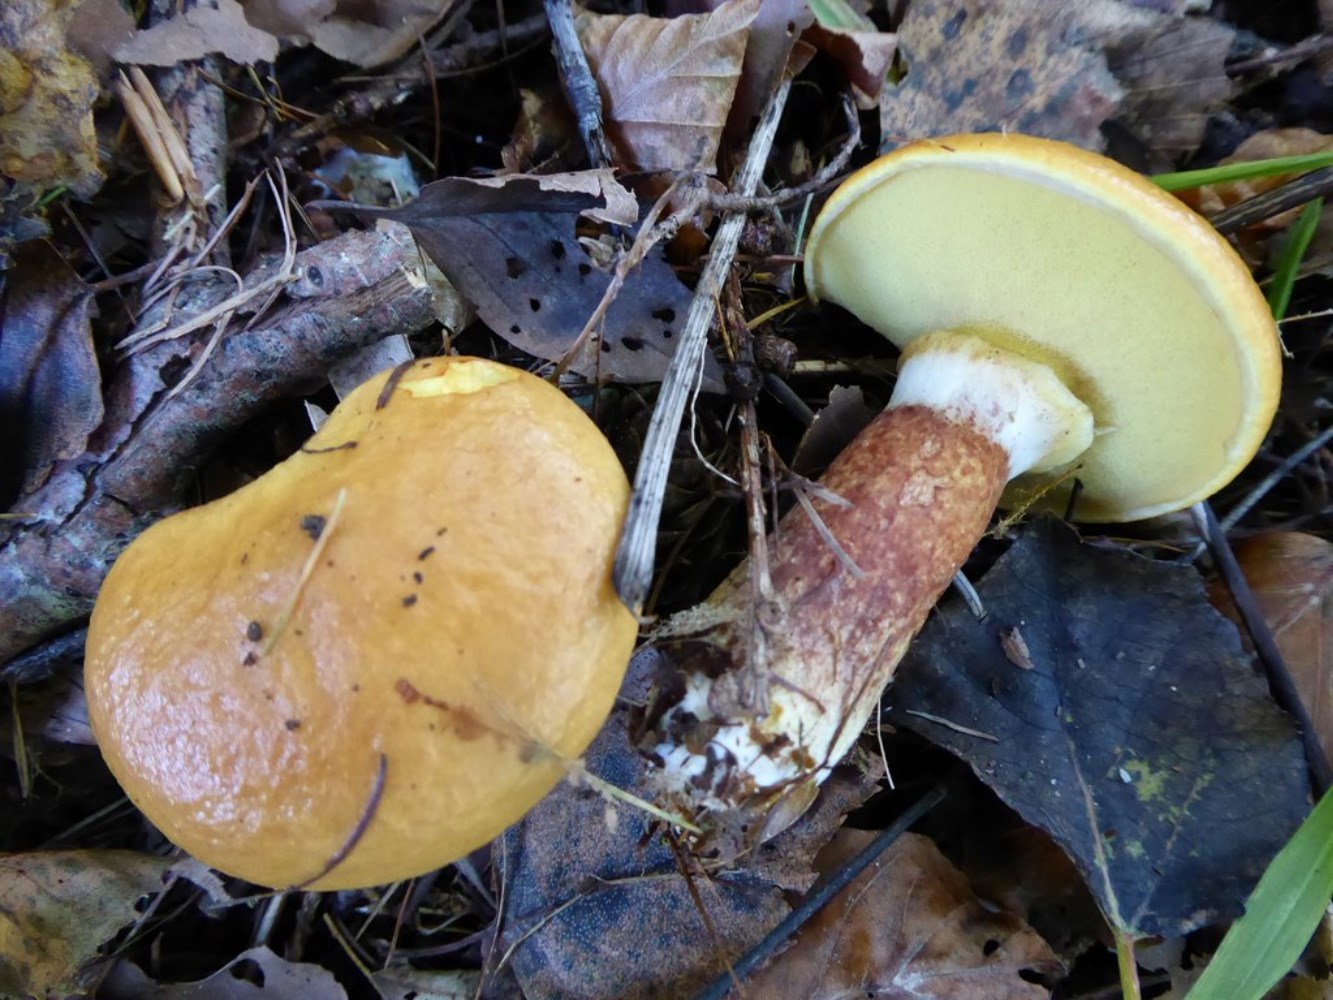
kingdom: Fungi
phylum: Basidiomycota
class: Agaricomycetes
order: Boletales
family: Suillaceae
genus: Suillus
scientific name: Suillus grevillei
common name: lærke-slimrørhat
